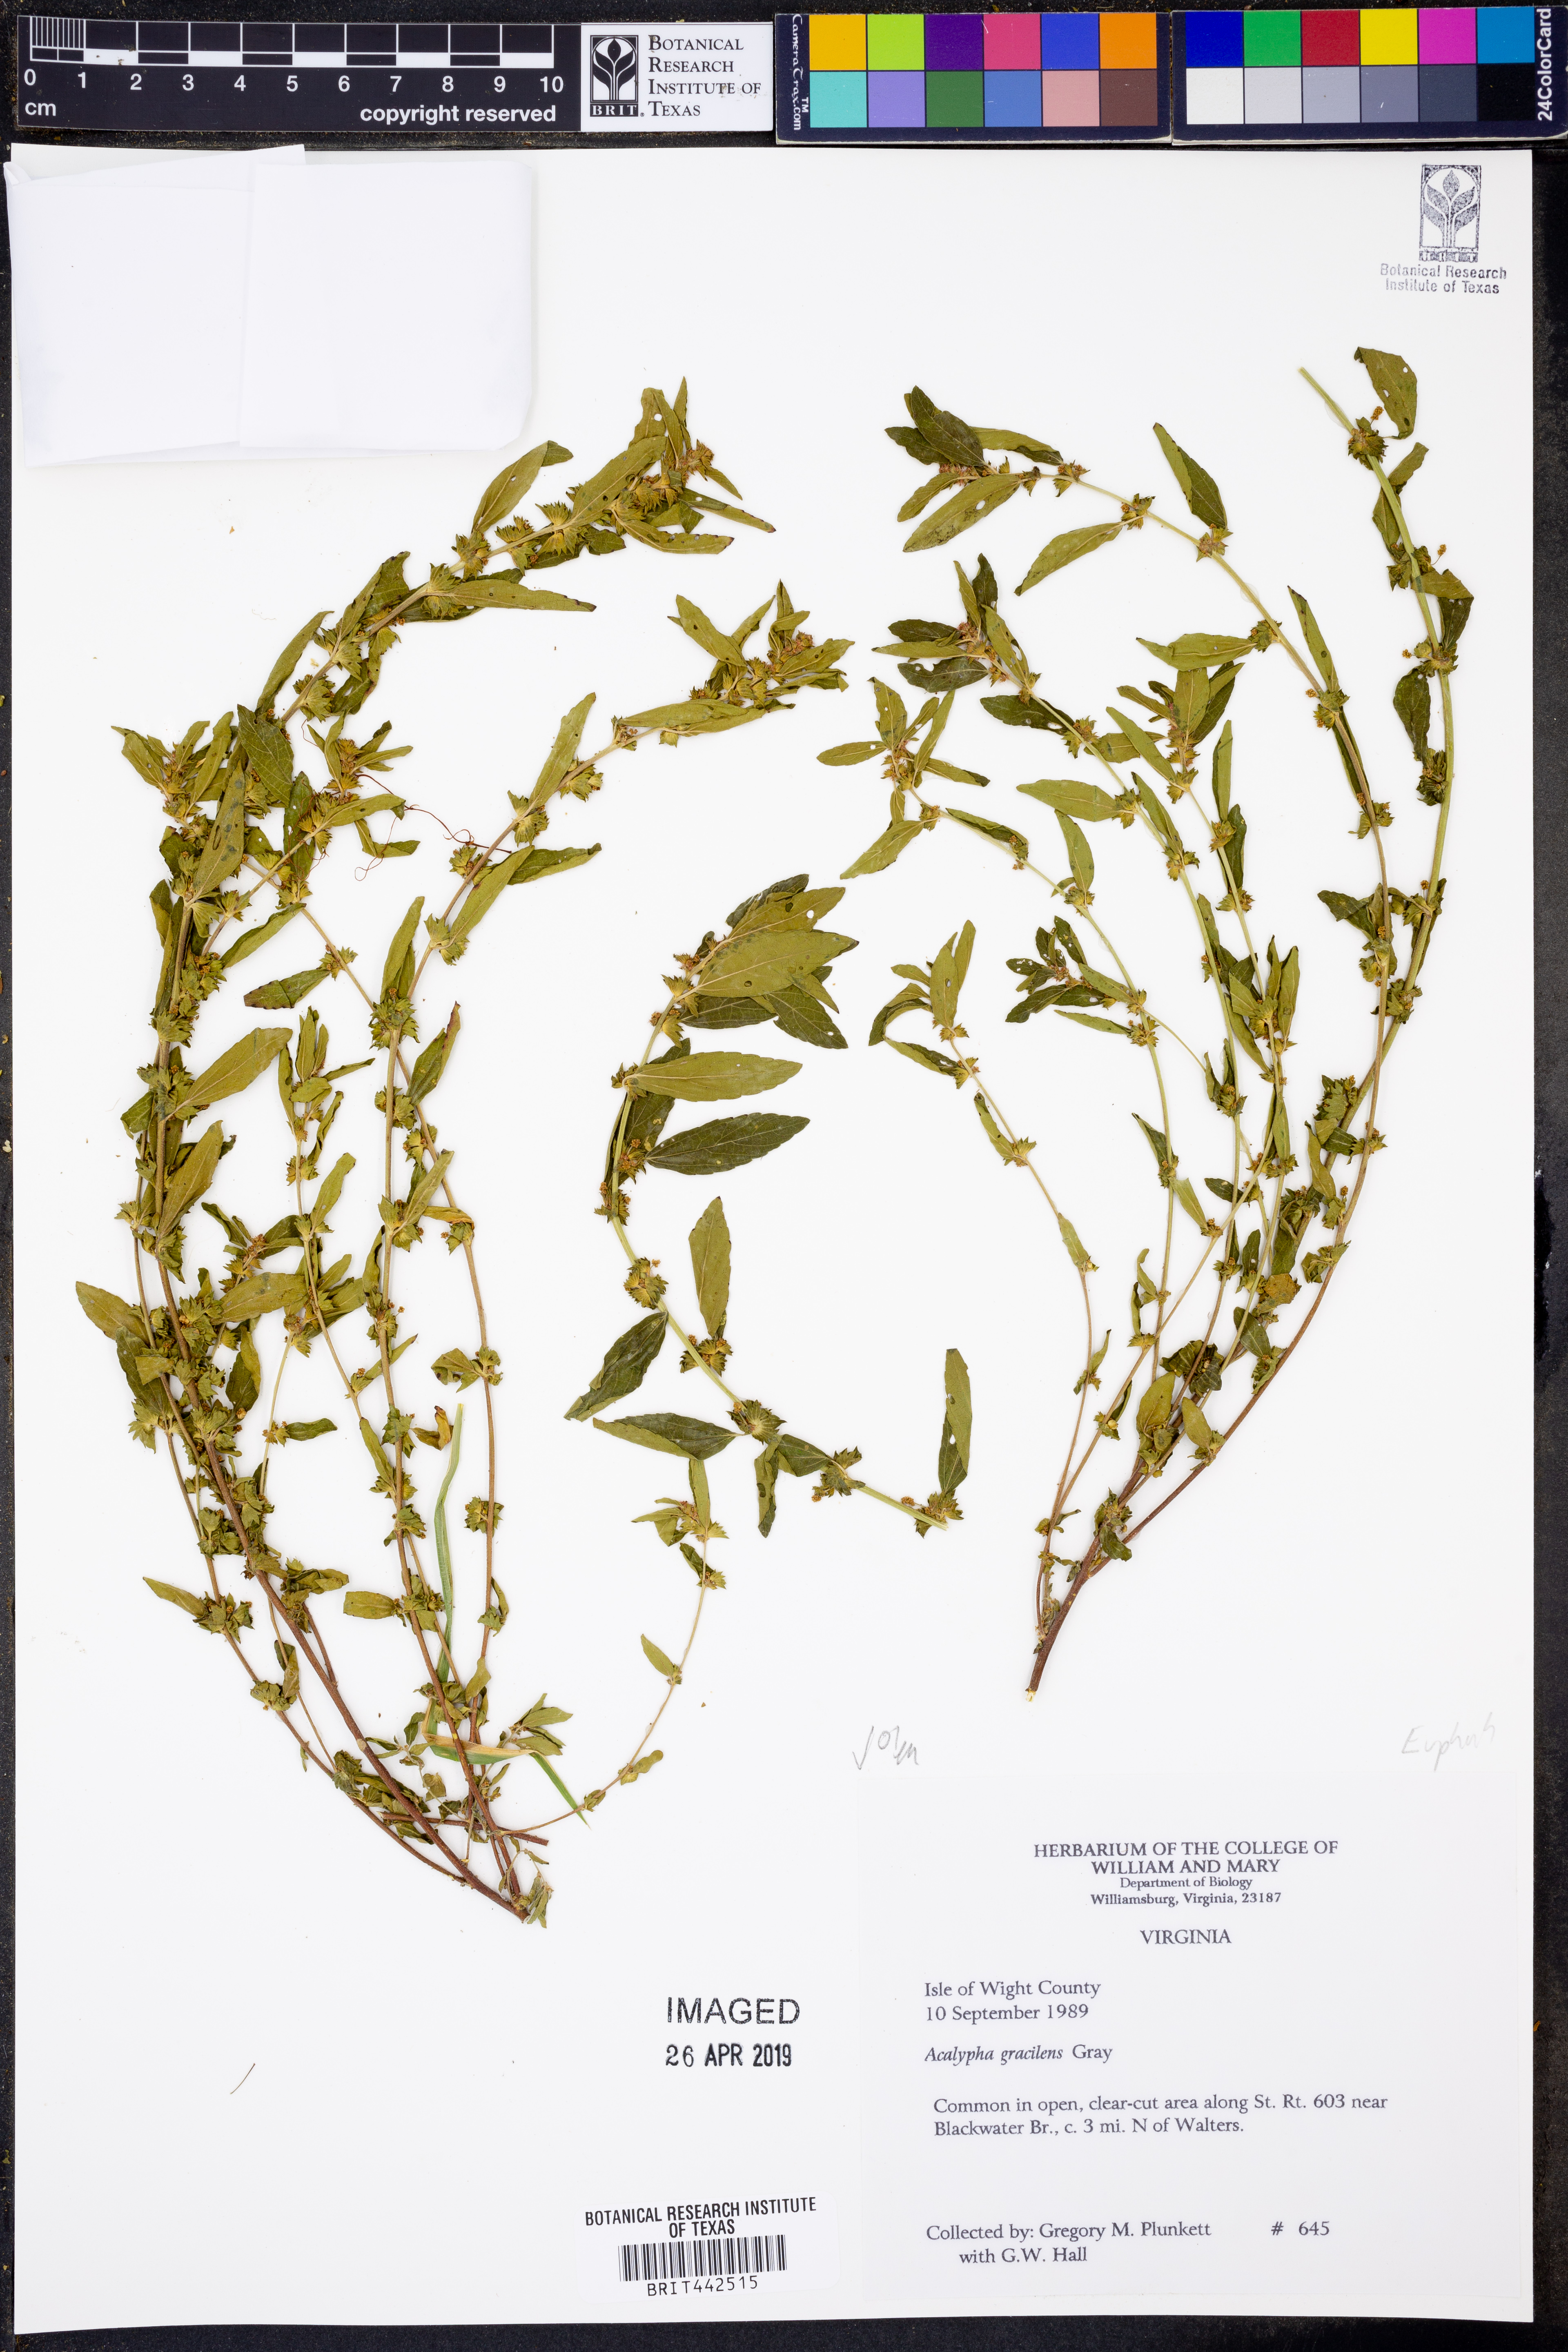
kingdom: Plantae
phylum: Tracheophyta
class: Magnoliopsida
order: Malpighiales
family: Euphorbiaceae
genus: Acalypha
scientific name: Acalypha gracilens
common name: Slender three-seeded mercury
